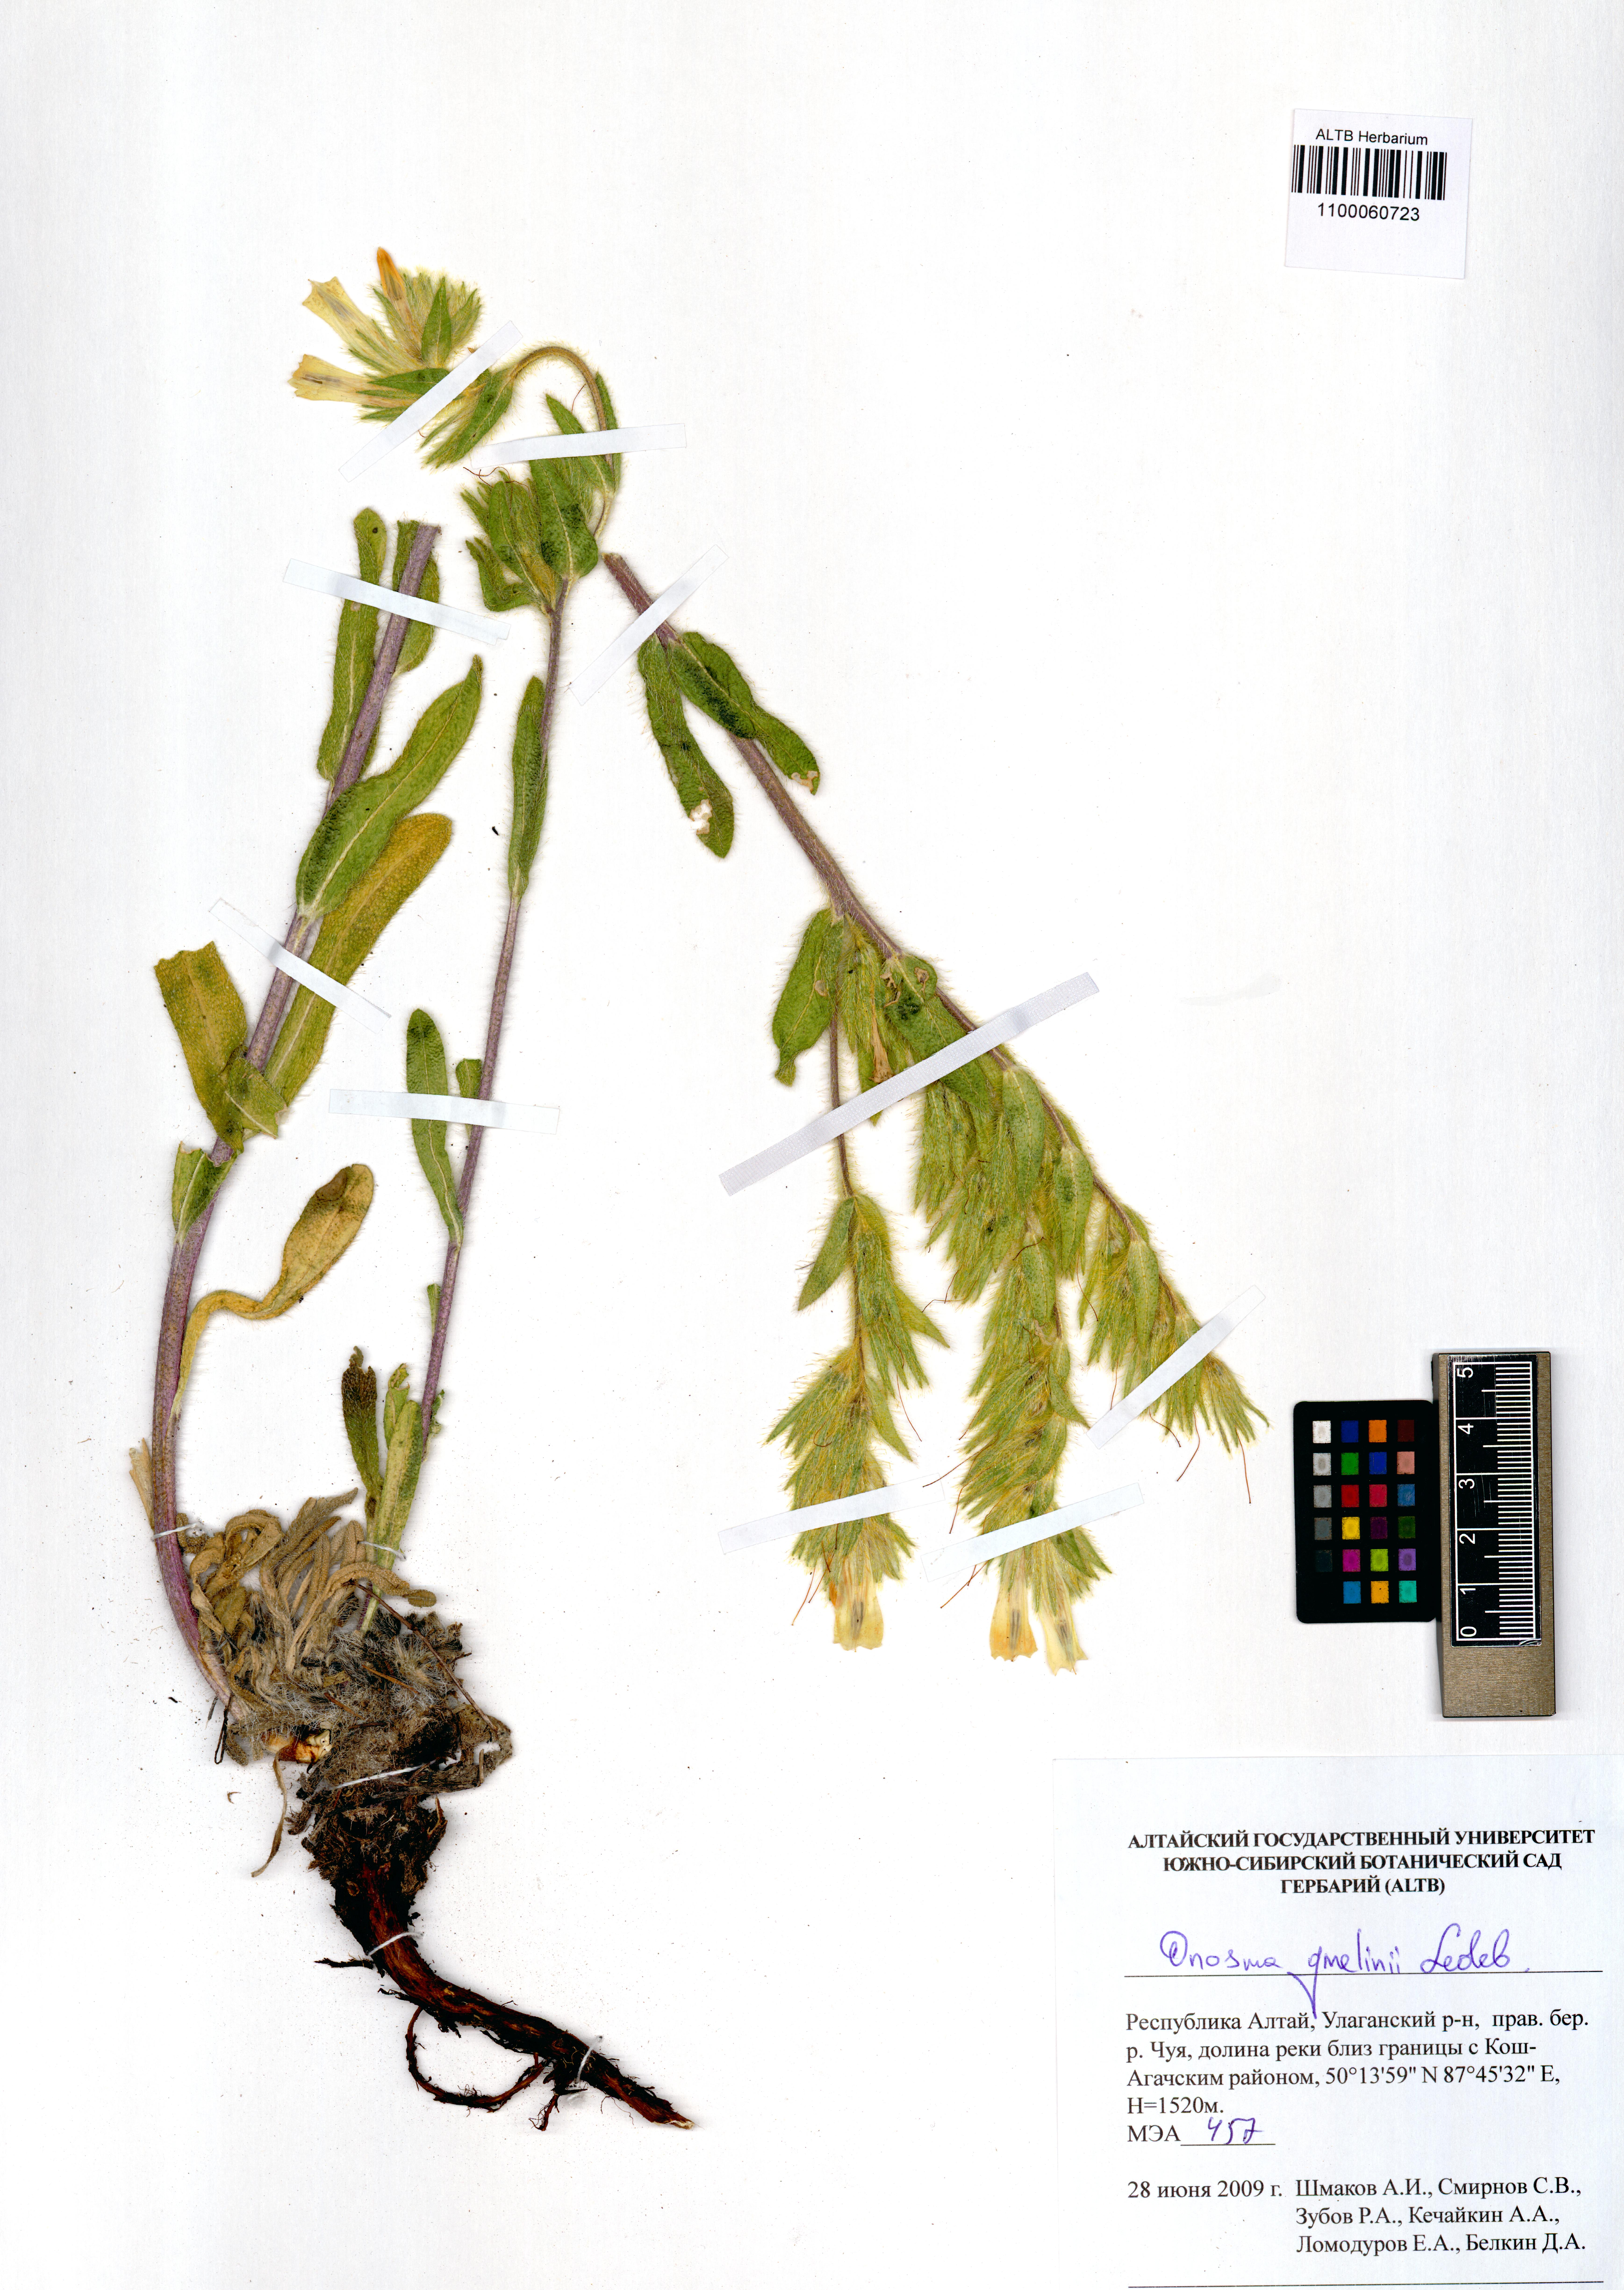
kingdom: Plantae
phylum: Tracheophyta
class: Magnoliopsida
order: Boraginales
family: Boraginaceae
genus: Onosma
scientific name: Onosma gmelinii
